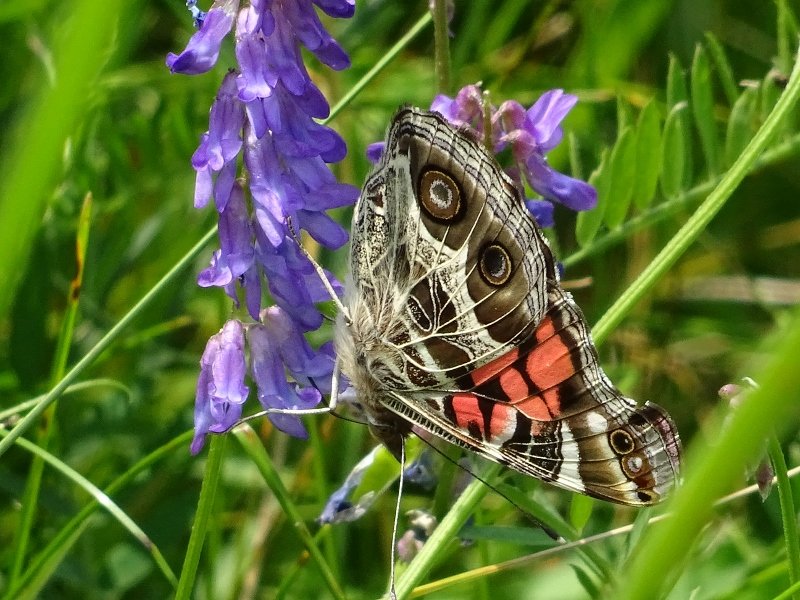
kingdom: Animalia
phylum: Arthropoda
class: Insecta
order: Lepidoptera
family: Nymphalidae
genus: Vanessa
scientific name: Vanessa virginiensis
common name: American Lady
